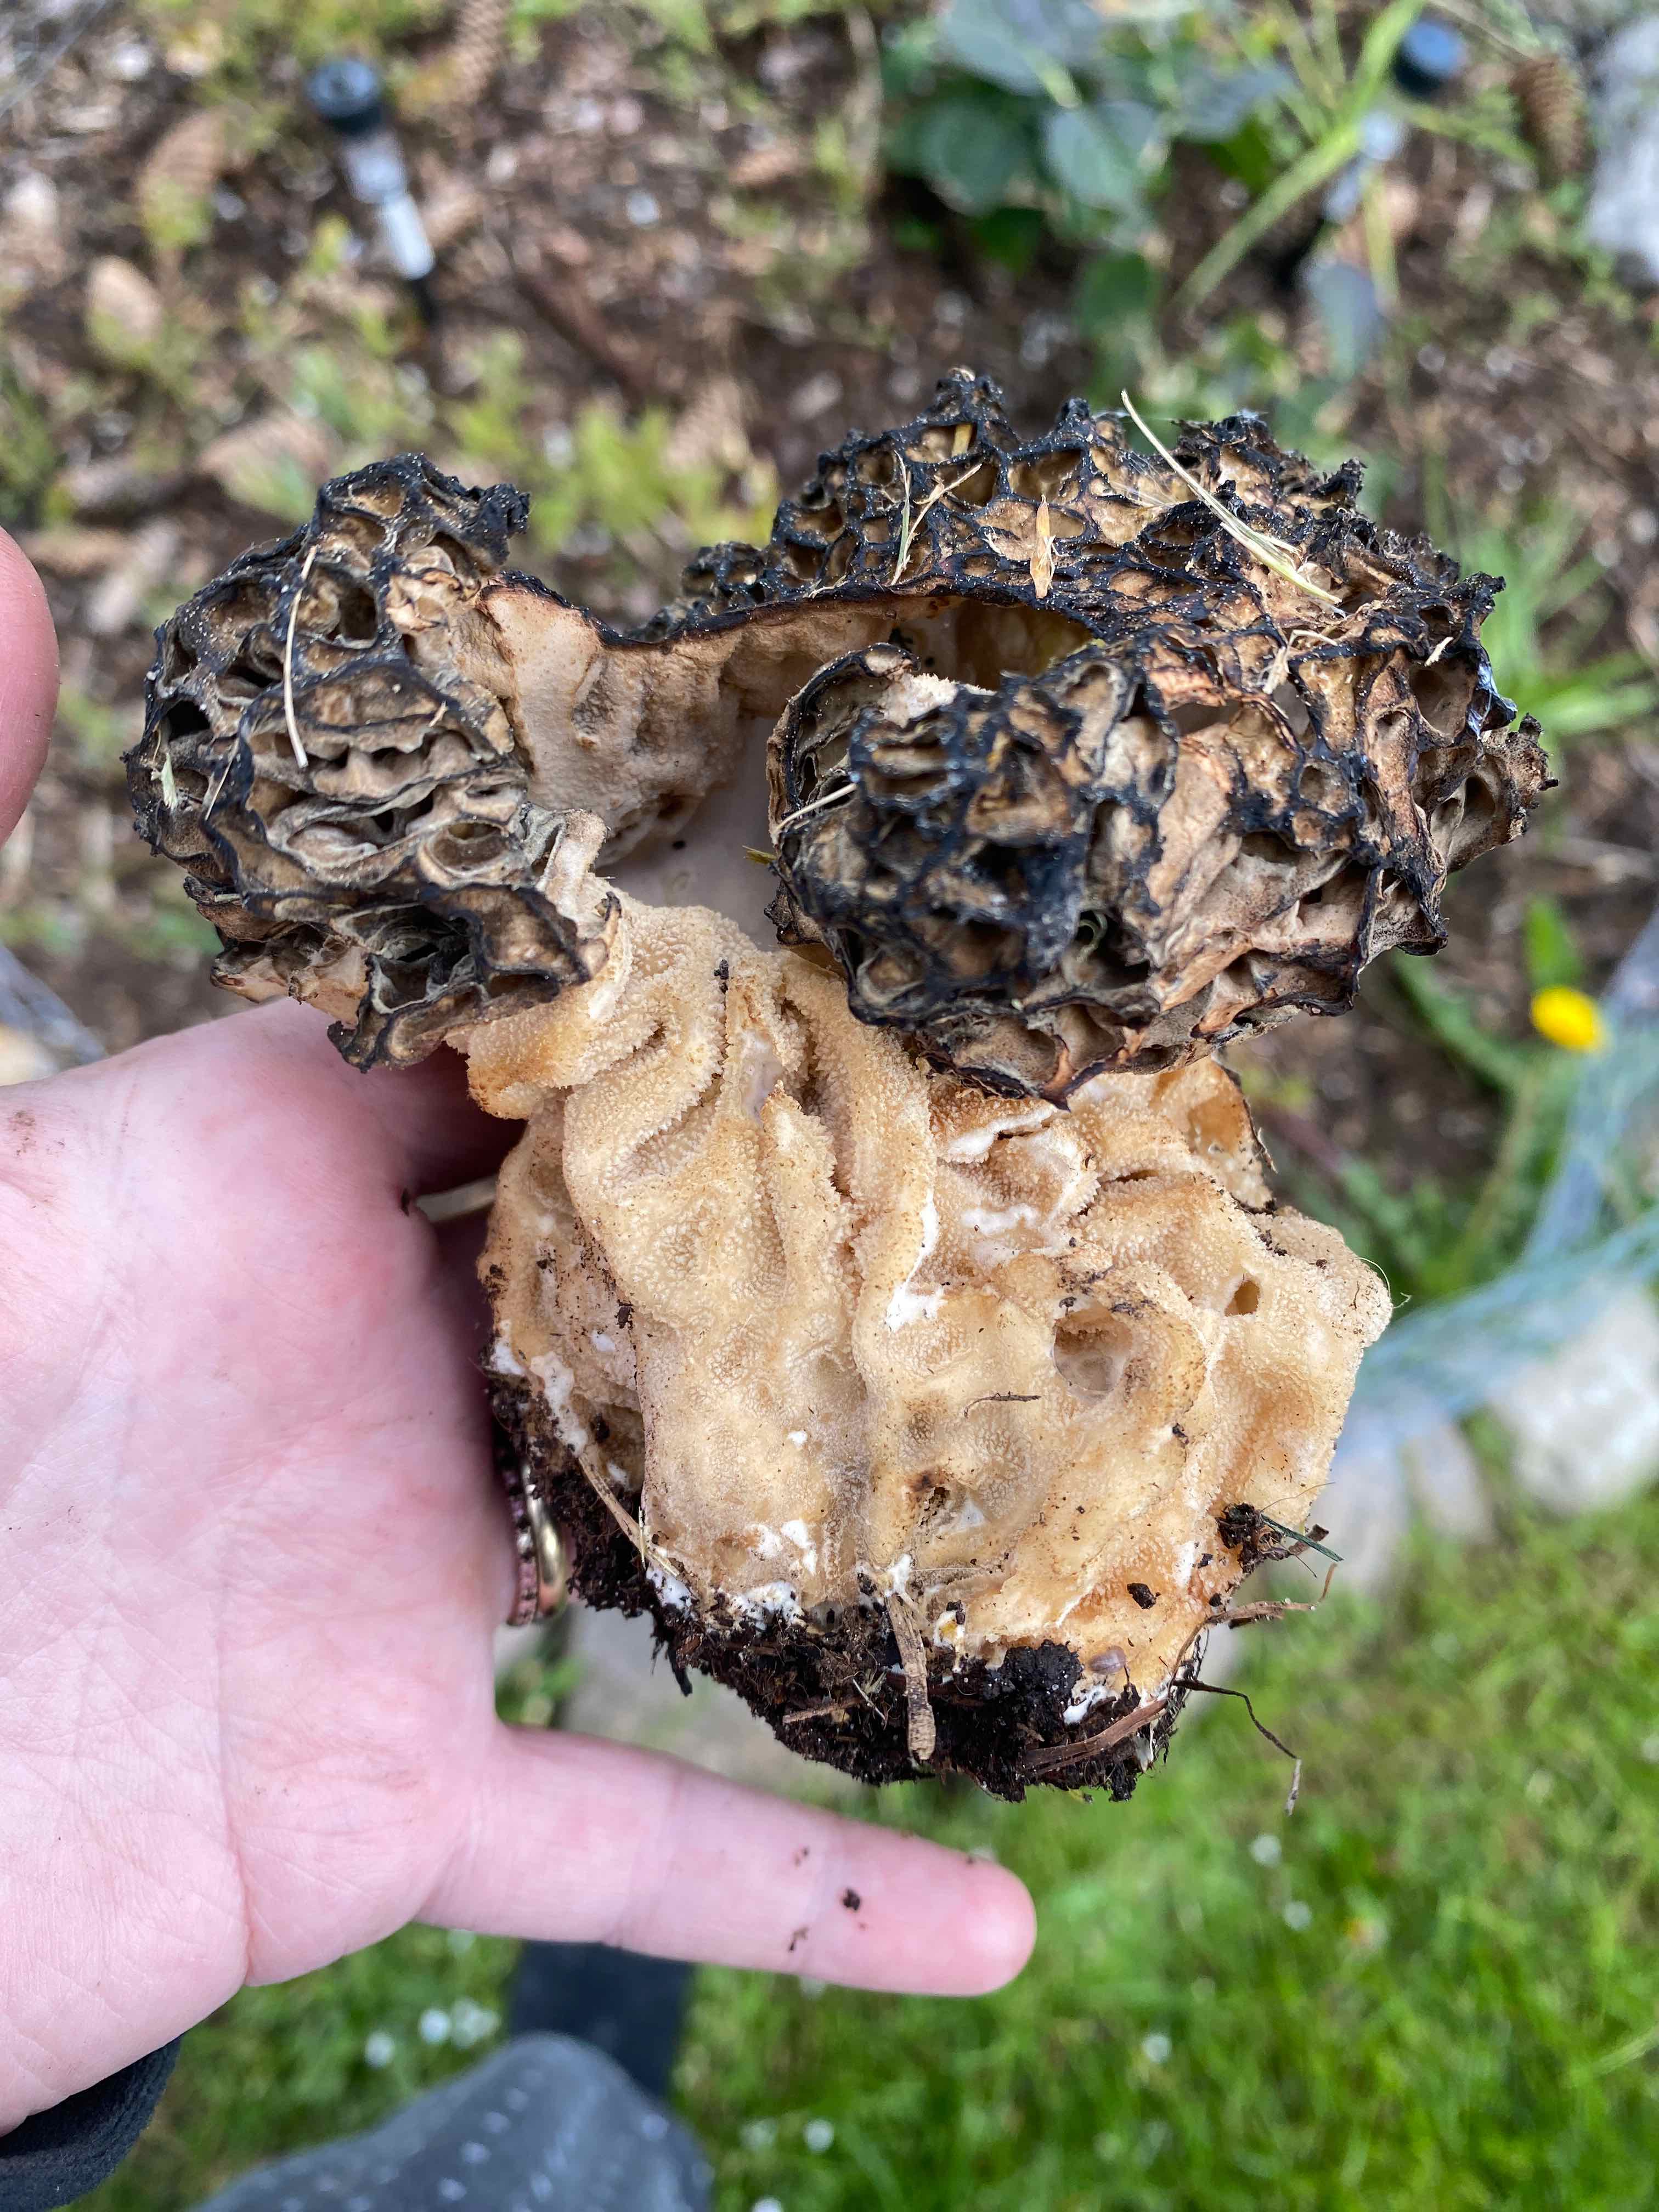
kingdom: Fungi
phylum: Ascomycota
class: Pezizomycetes
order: Pezizales
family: Morchellaceae
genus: Morchella
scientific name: Morchella
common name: morkel
